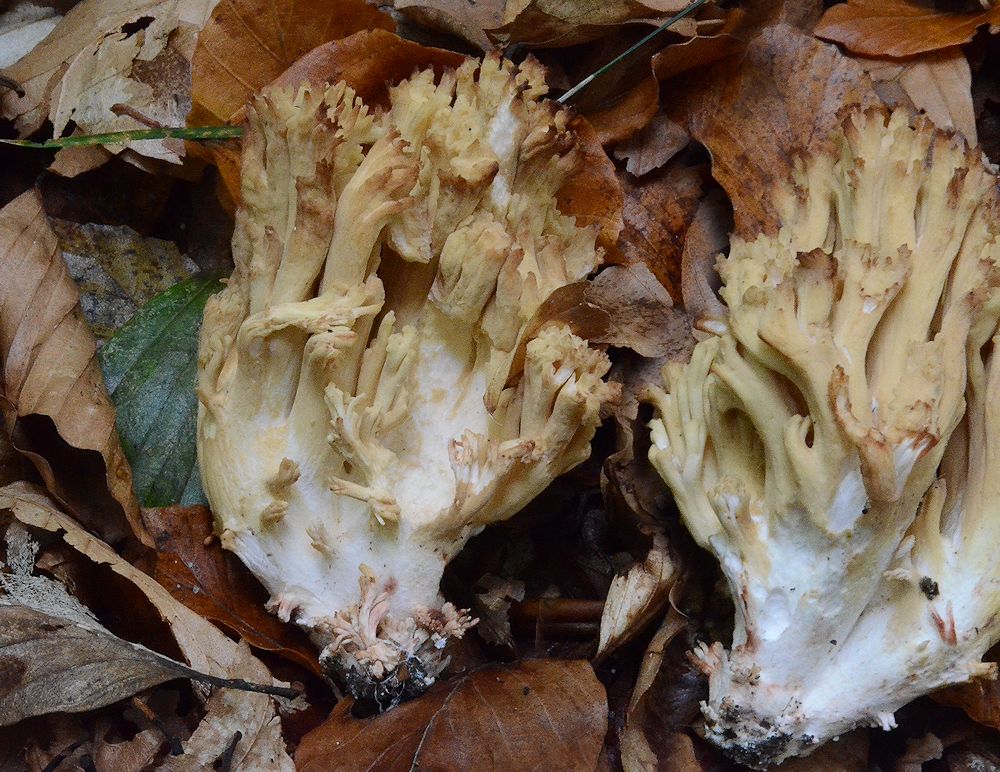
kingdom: Fungi
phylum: Basidiomycota
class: Agaricomycetes
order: Gomphales
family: Gomphaceae
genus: Ramaria
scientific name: Ramaria sanguinea
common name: blodplettet koralsvamp
